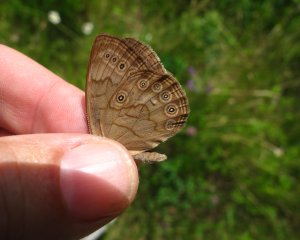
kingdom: Animalia
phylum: Arthropoda
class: Insecta
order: Lepidoptera
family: Nymphalidae
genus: Lethe
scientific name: Lethe eurydice
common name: Eyed Brown
